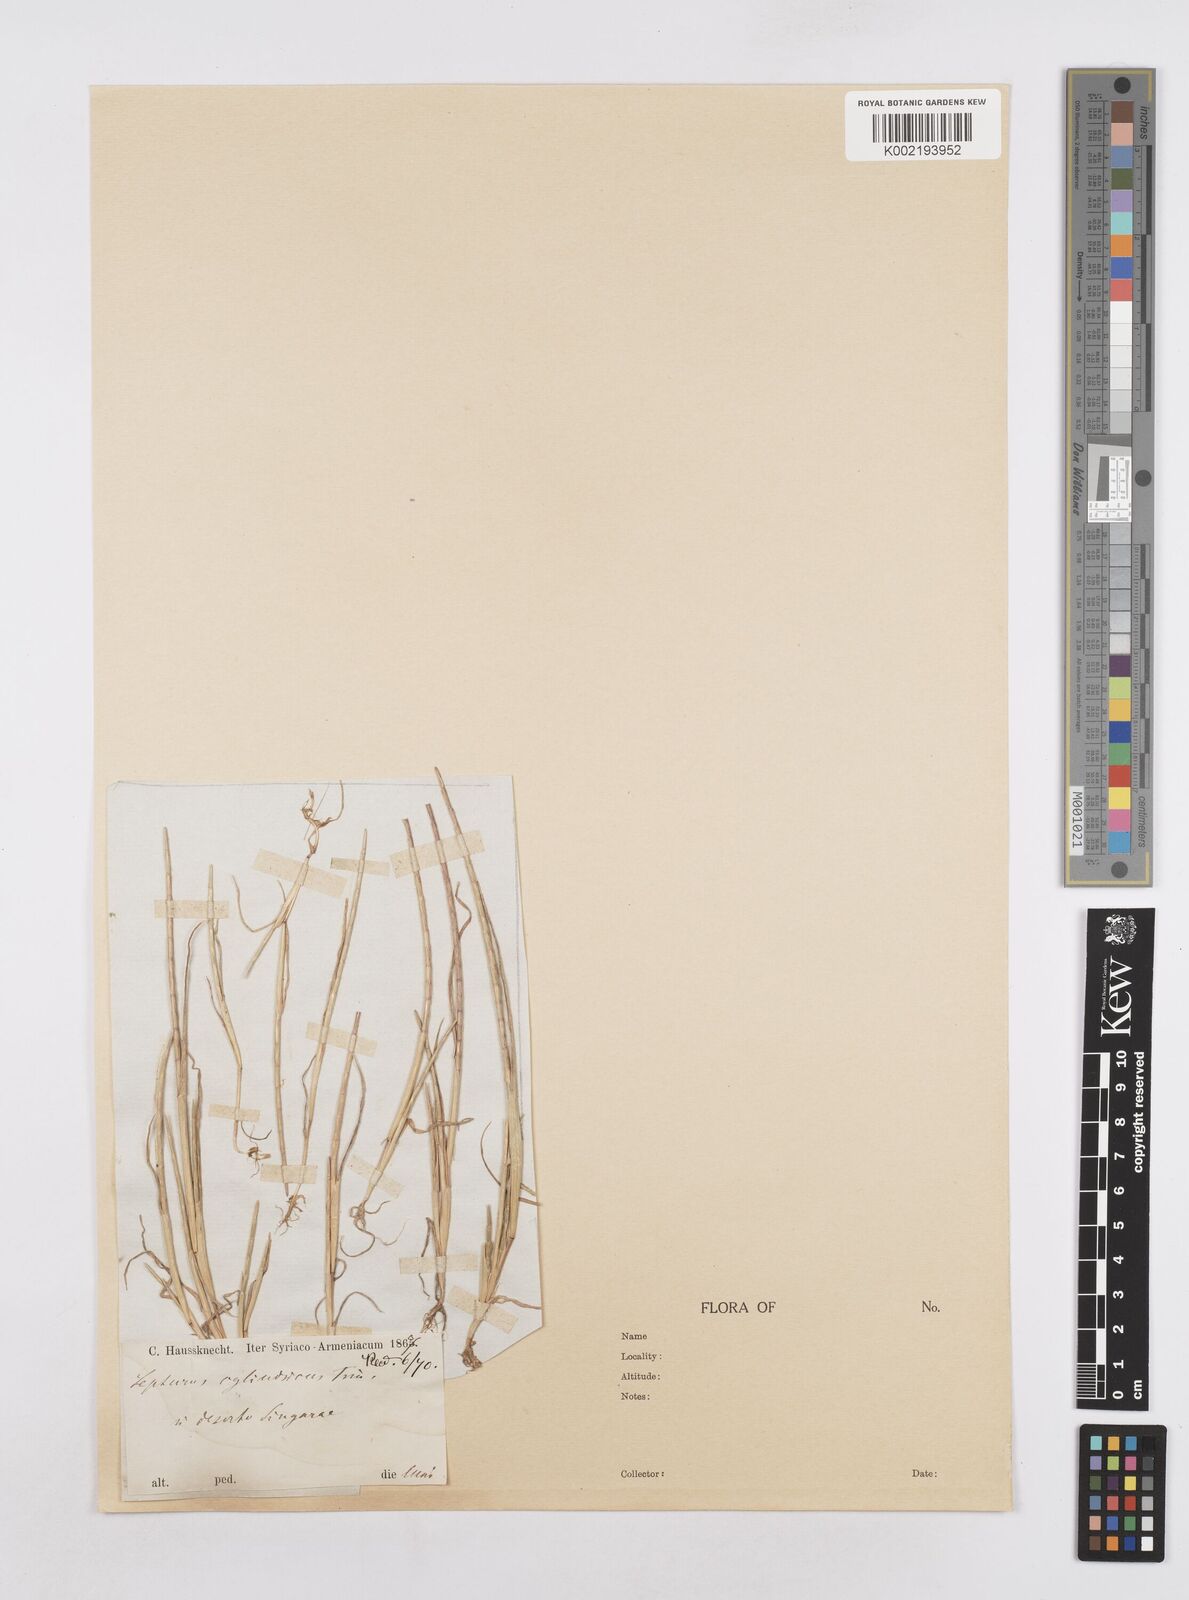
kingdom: Plantae
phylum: Tracheophyta
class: Liliopsida
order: Poales
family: Poaceae
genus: Parapholis
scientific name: Parapholis incurva
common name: Curved sicklegrass
